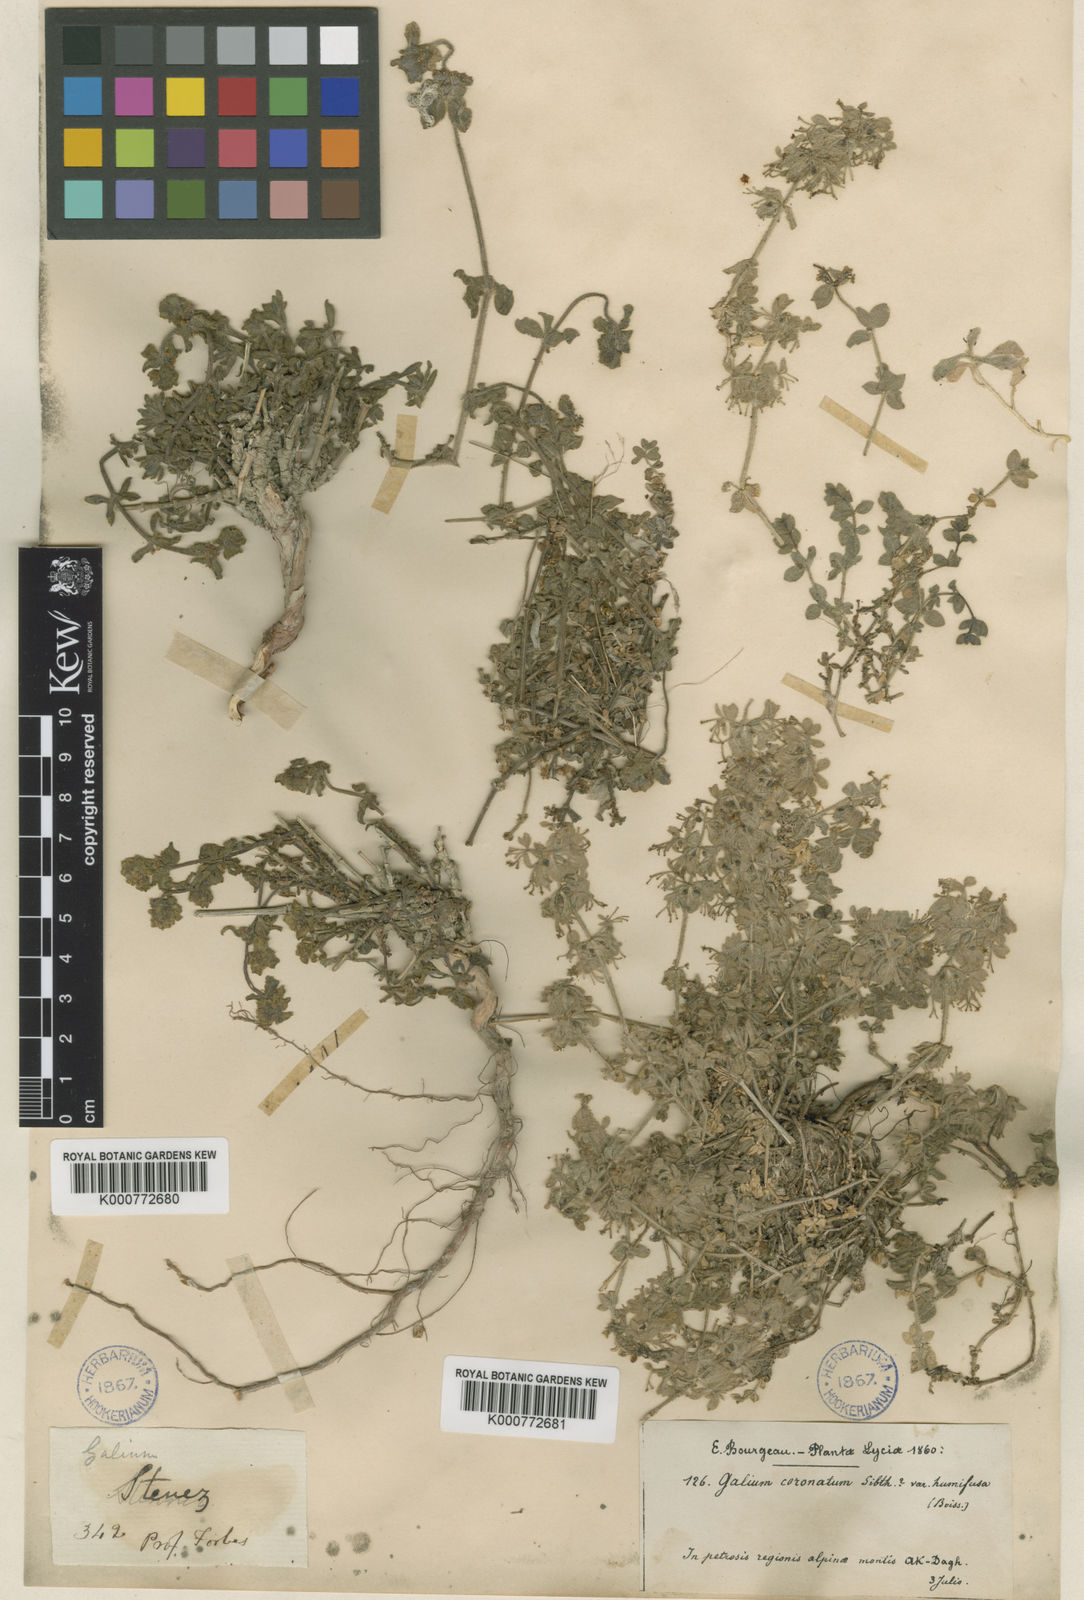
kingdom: Plantae
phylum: Tracheophyta
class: Magnoliopsida
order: Gentianales
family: Rubiaceae
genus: Cruciata
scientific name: Cruciata taurica
